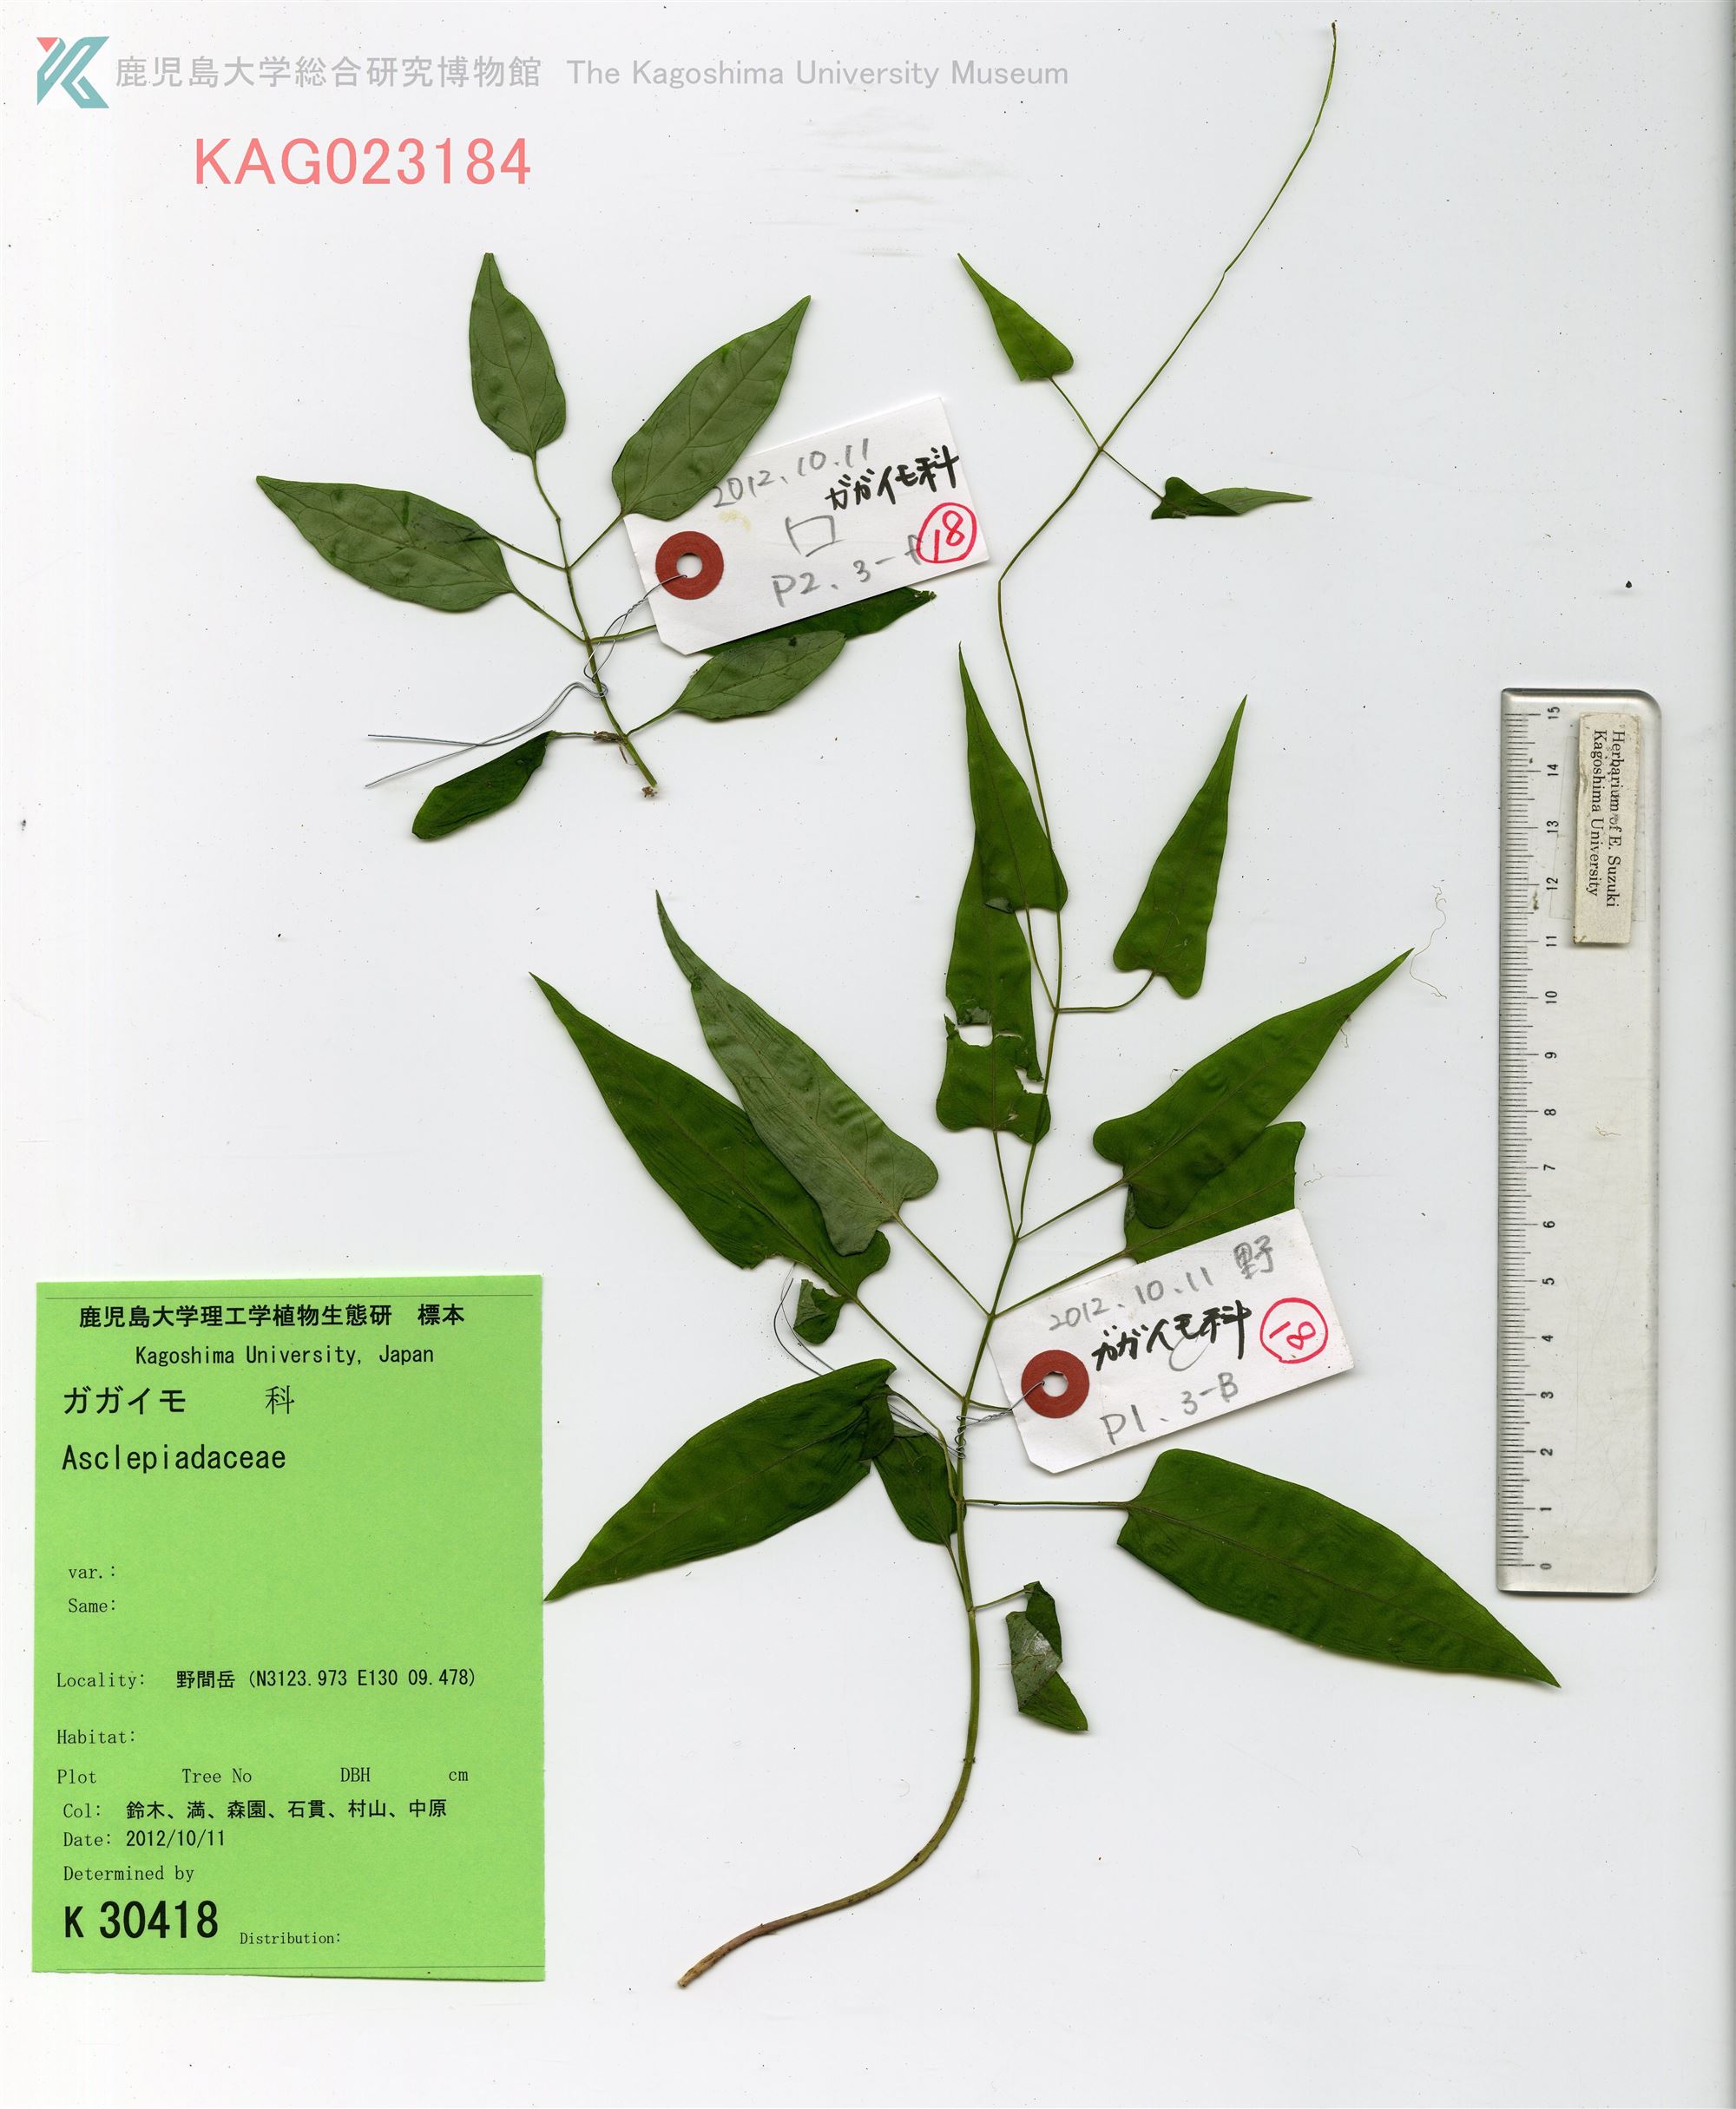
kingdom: Plantae
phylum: Tracheophyta
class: Magnoliopsida
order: Gentianales
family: Apocynaceae
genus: Vincetoxicum
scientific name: Vincetoxicum aristolochioides
